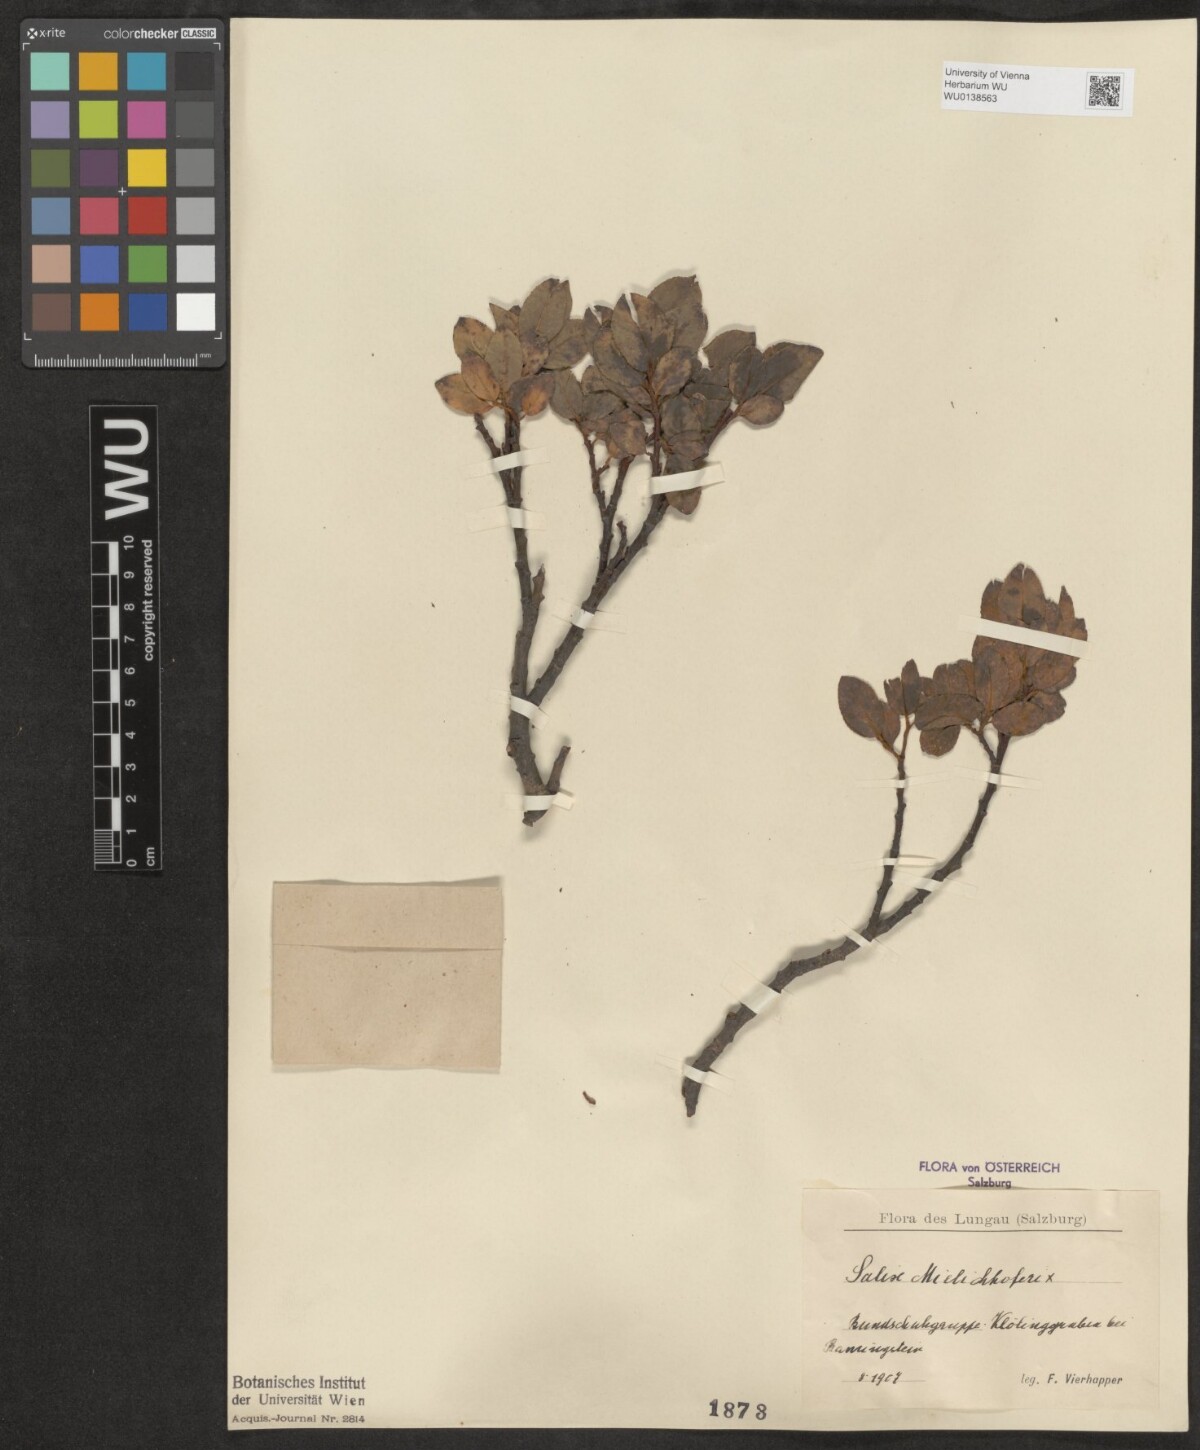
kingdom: Plantae
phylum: Tracheophyta
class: Magnoliopsida
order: Malpighiales
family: Salicaceae
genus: Salix
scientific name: Salix mielichhoferi
